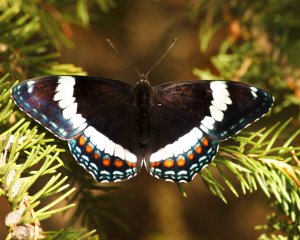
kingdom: Animalia
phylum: Arthropoda
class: Insecta
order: Lepidoptera
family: Nymphalidae
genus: Limenitis
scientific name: Limenitis arthemis
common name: Red-spotted Admiral
